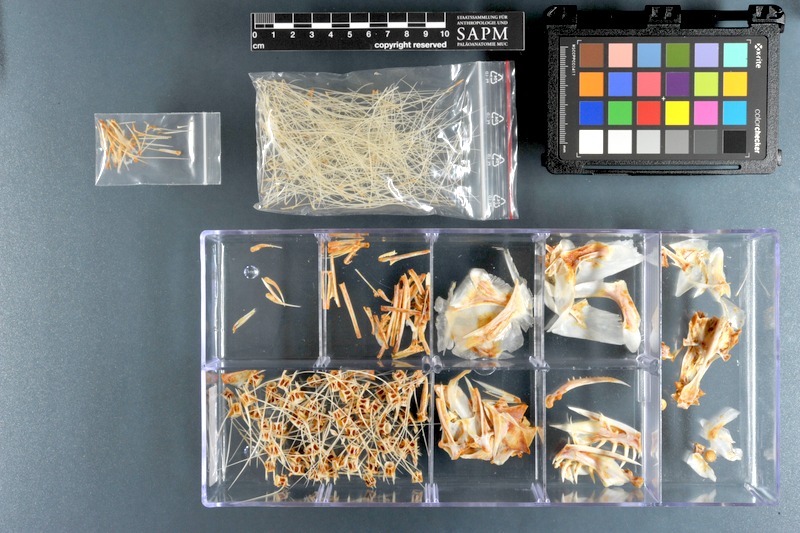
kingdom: Animalia
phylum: Chordata
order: Clupeiformes
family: Chirocentridae
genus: Chirocentrus
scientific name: Chirocentrus dorab
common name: Wolf herring
